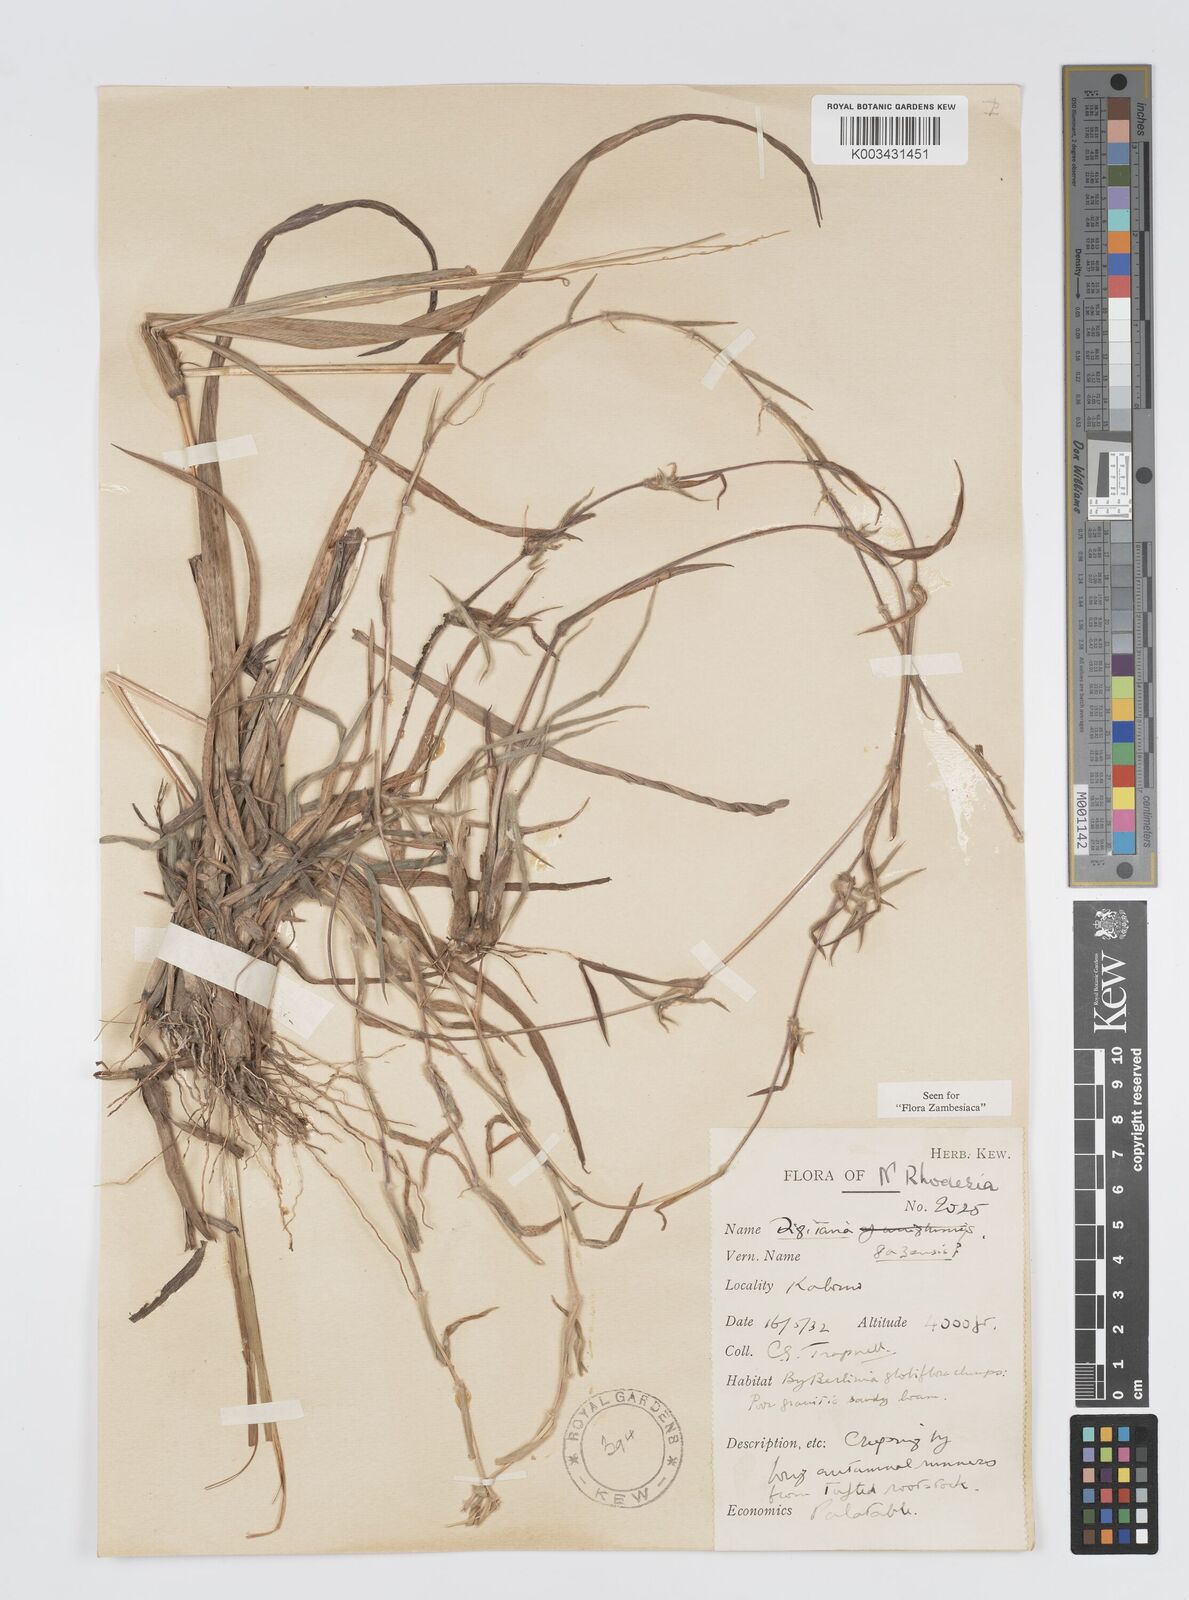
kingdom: Plantae
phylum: Tracheophyta
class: Liliopsida
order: Poales
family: Poaceae
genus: Digitaria
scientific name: Digitaria gazensis
